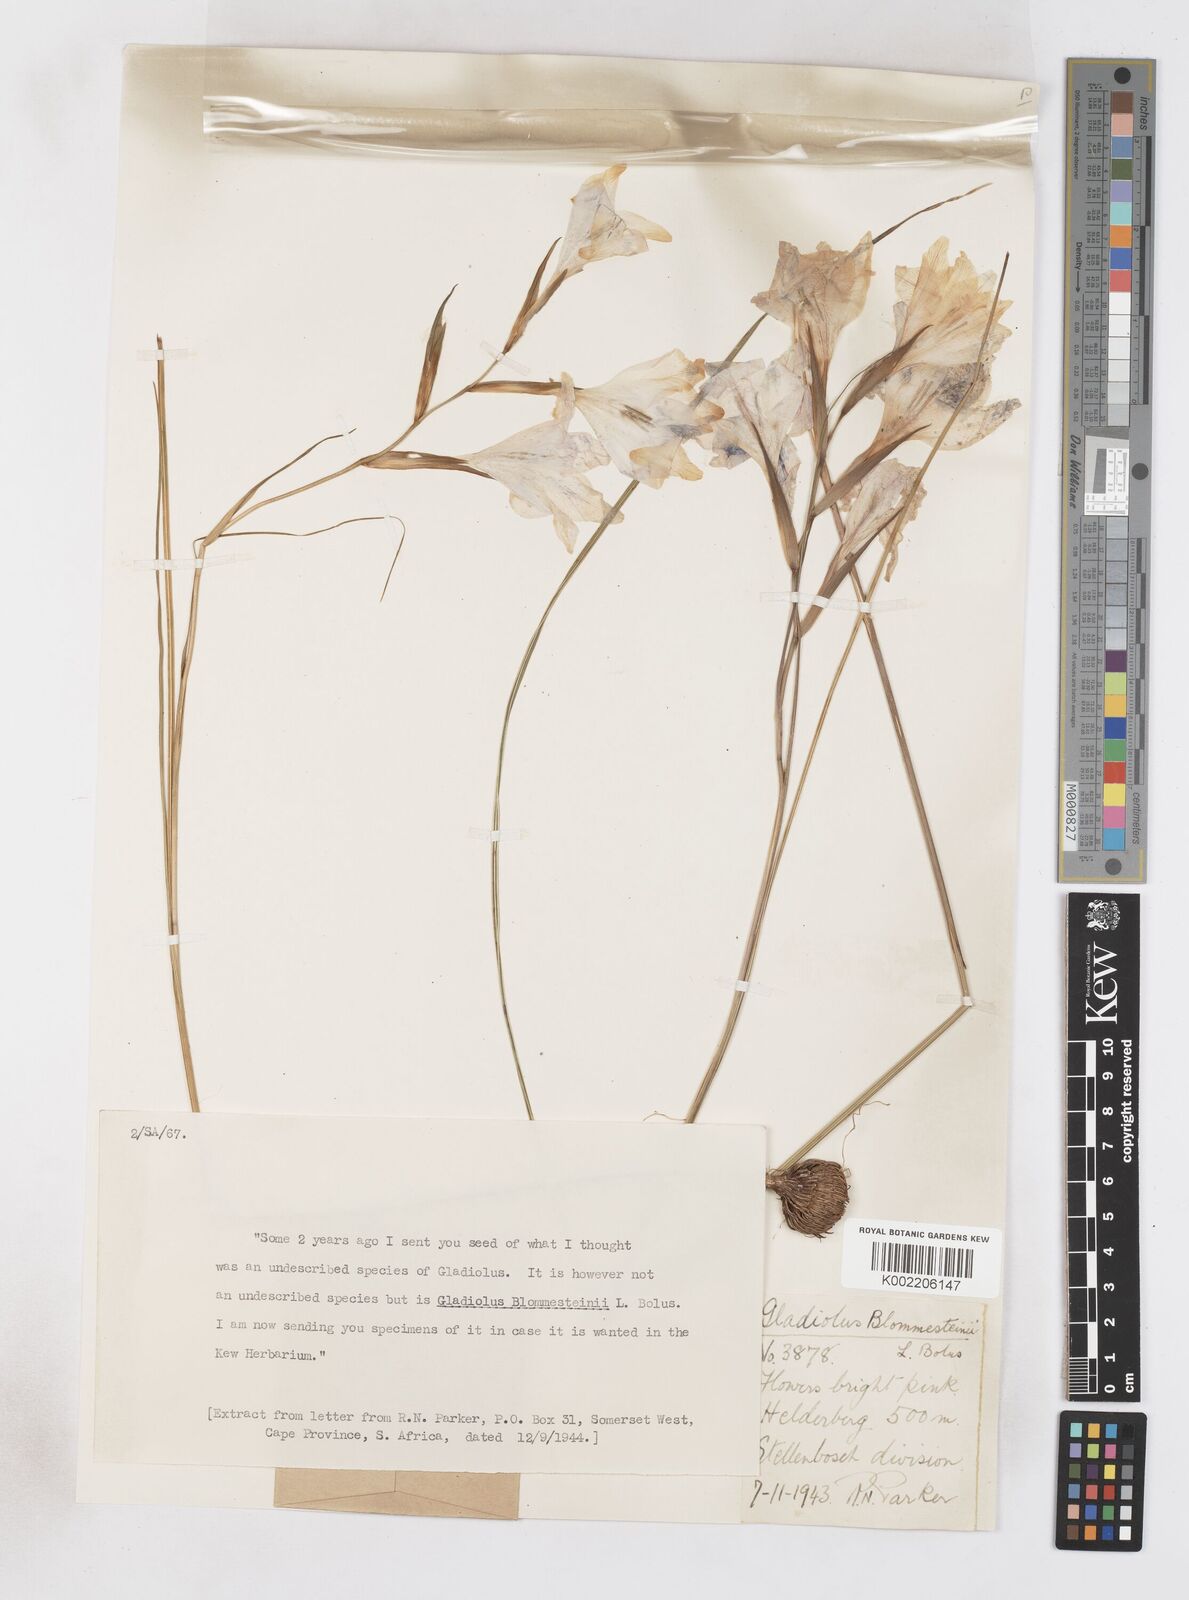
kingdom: Plantae
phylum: Tracheophyta
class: Liliopsida
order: Asparagales
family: Iridaceae
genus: Gladiolus
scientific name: Gladiolus virgatus
